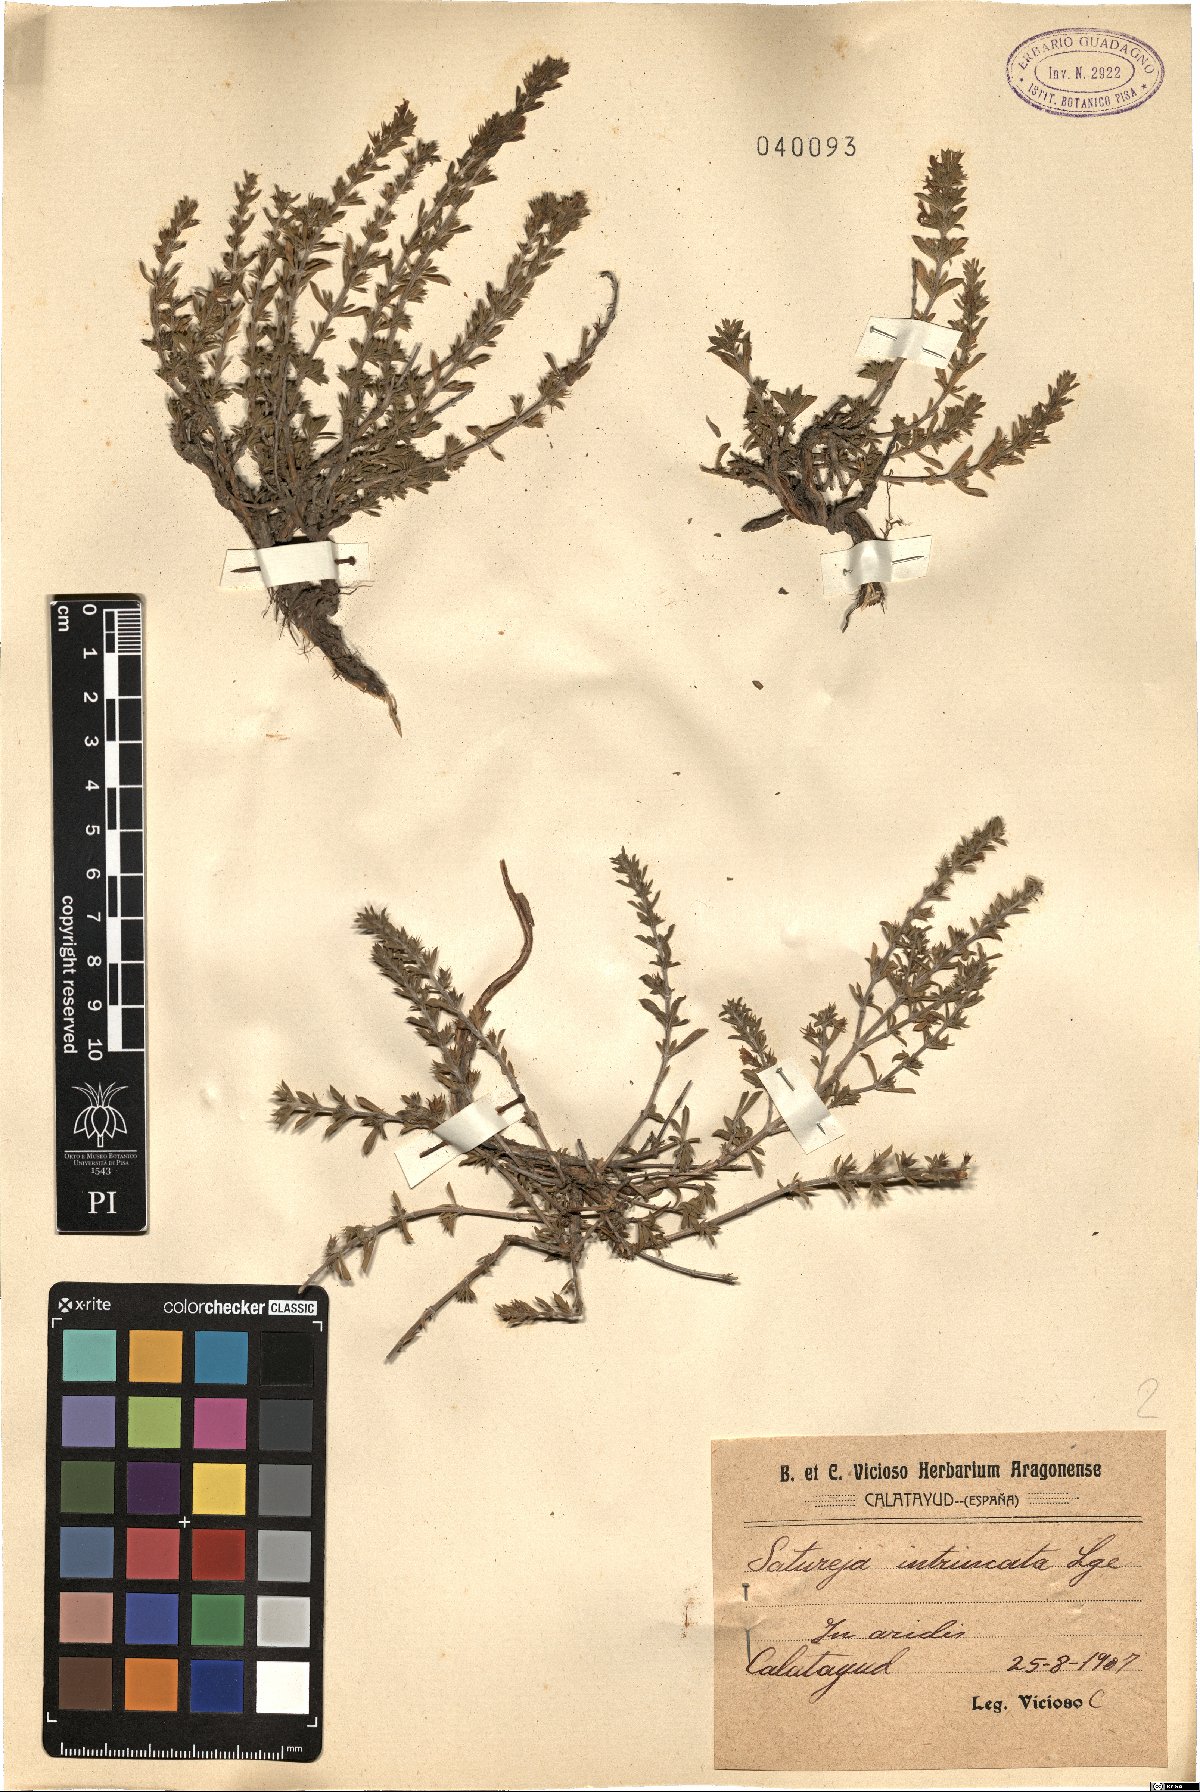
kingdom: Plantae
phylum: Tracheophyta
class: Magnoliopsida
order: Lamiales
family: Lamiaceae
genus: Satureja
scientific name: Satureja intricata
